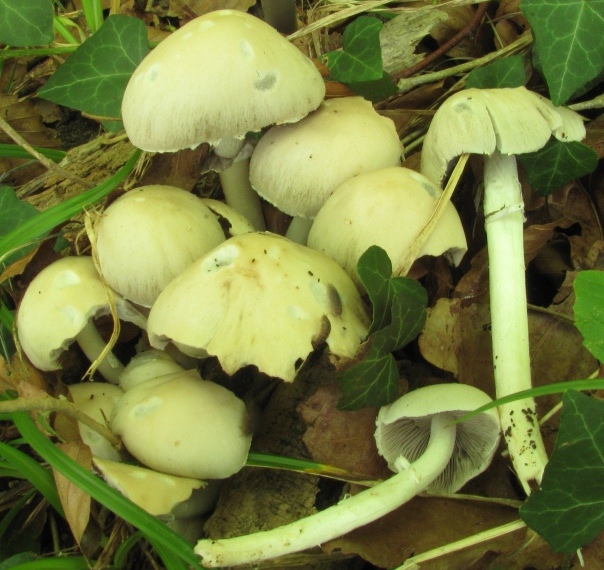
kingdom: Fungi
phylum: Basidiomycota
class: Agaricomycetes
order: Agaricales
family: Psathyrellaceae
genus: Candolleomyces
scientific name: Candolleomyces leucotephrus
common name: askehvid mørkhat
